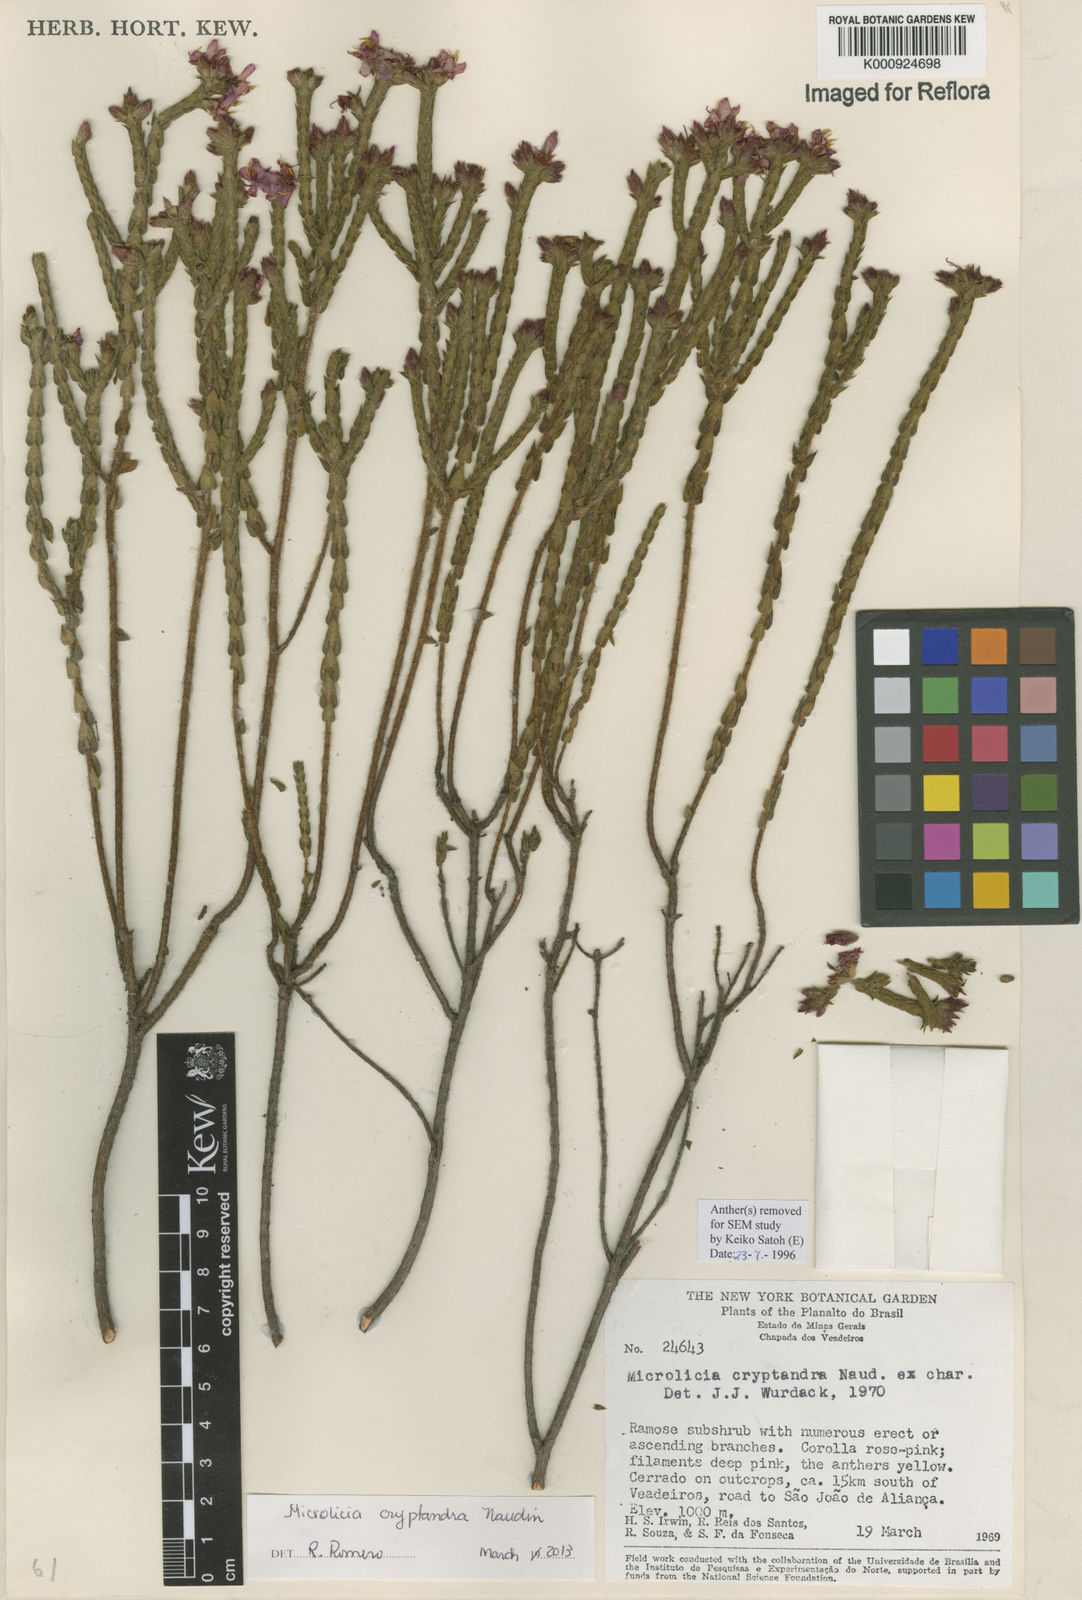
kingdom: Plantae
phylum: Tracheophyta
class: Magnoliopsida
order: Myrtales
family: Melastomataceae
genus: Microlicia
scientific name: Microlicia cryptandra
